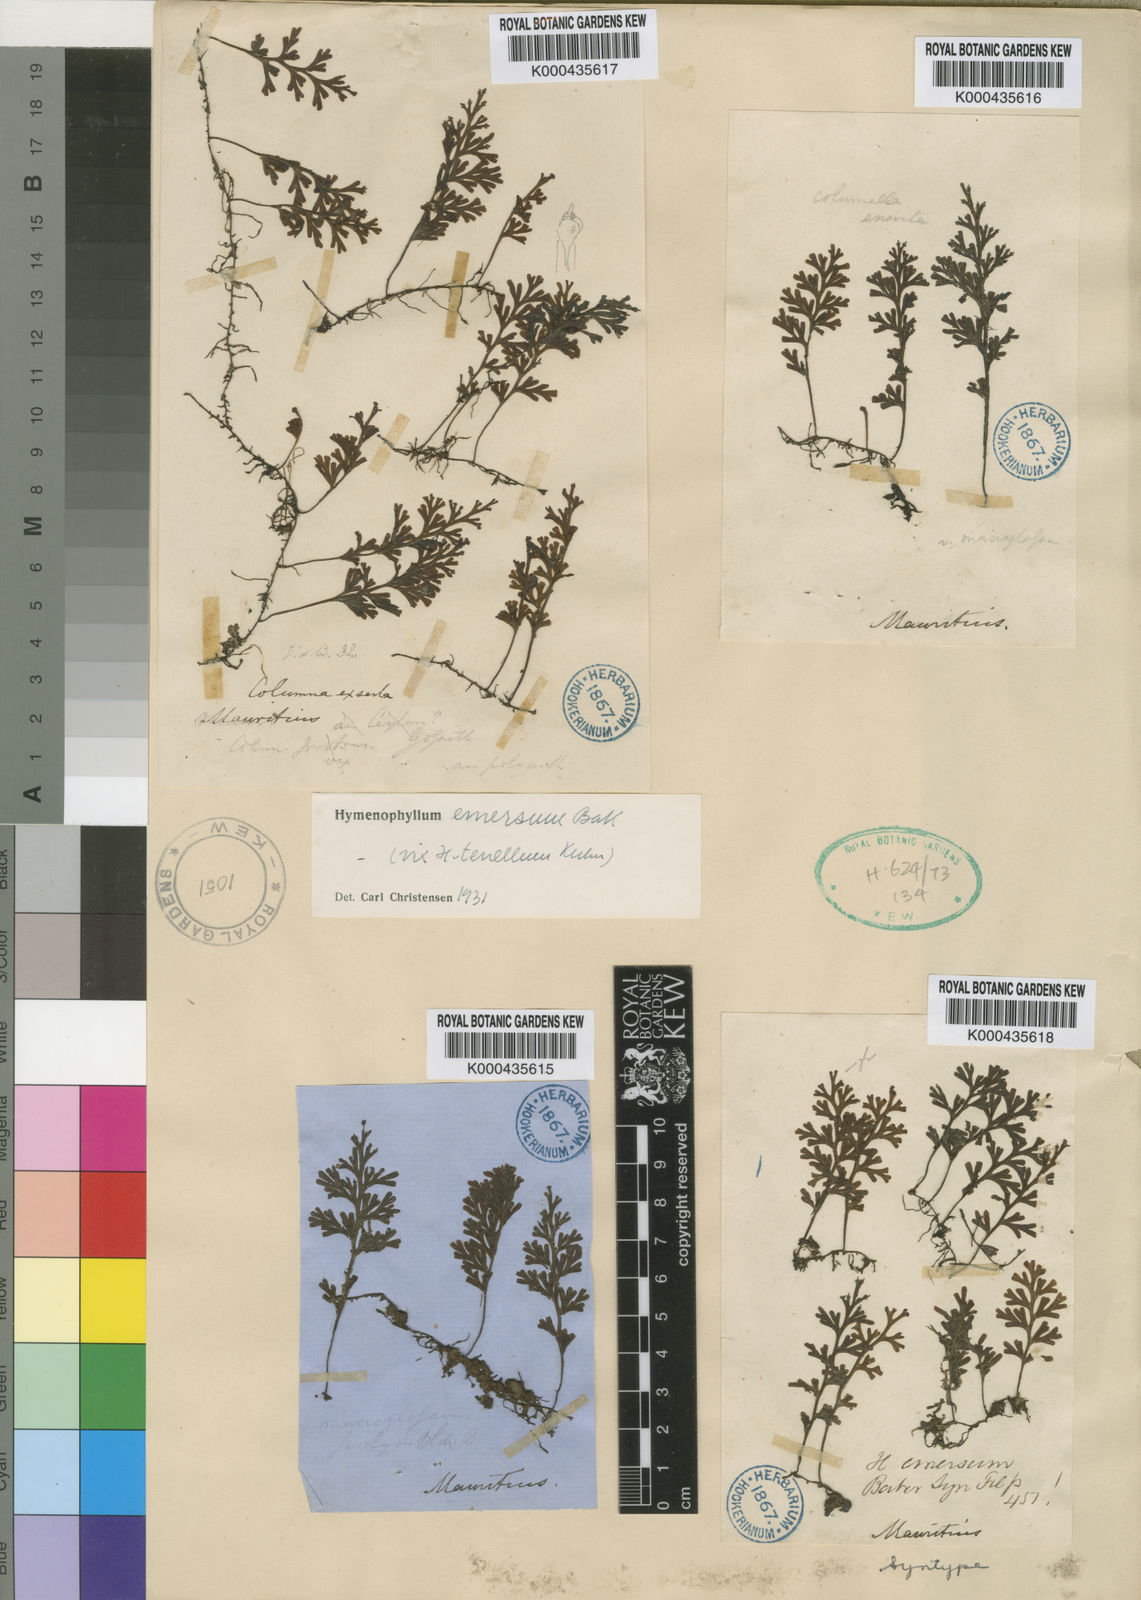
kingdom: Plantae
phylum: Tracheophyta
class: Polypodiopsida
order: Hymenophyllales
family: Hymenophyllaceae
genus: Hymenophyllum
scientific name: Hymenophyllum fumarioides
